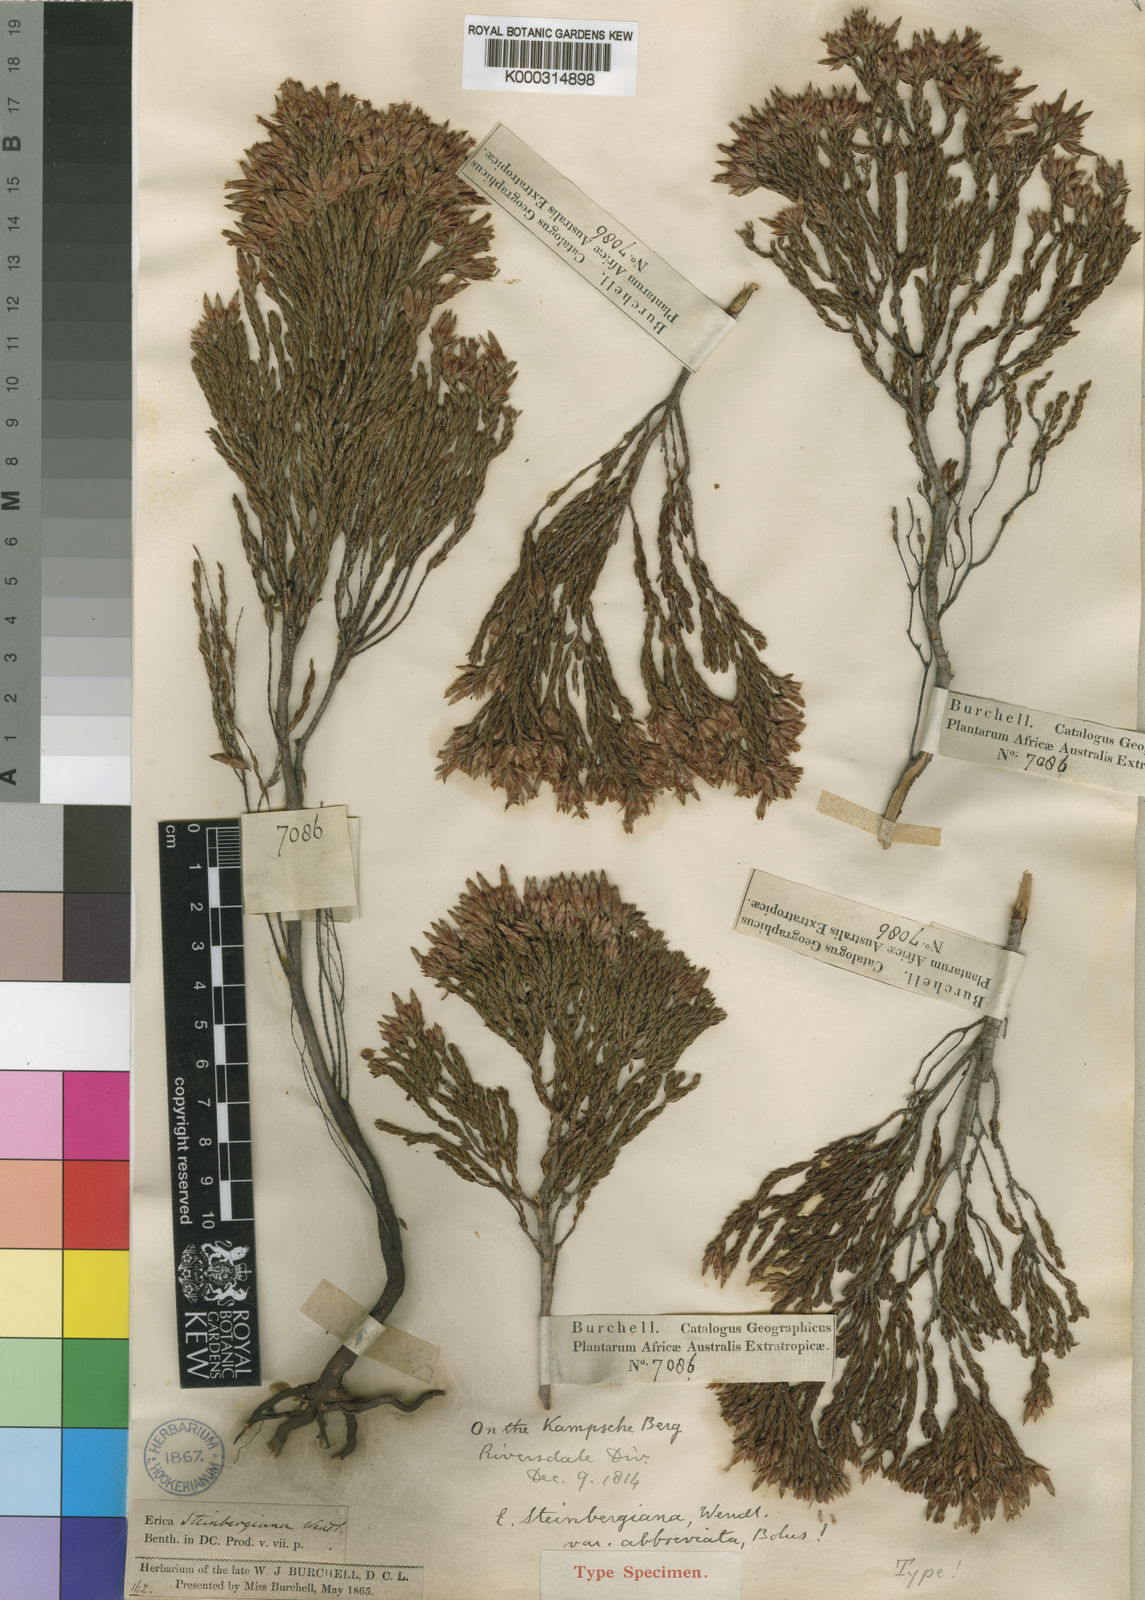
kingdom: Plantae
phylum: Tracheophyta
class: Magnoliopsida
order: Ericales
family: Ericaceae
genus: Erica
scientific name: Erica steinbergiana
